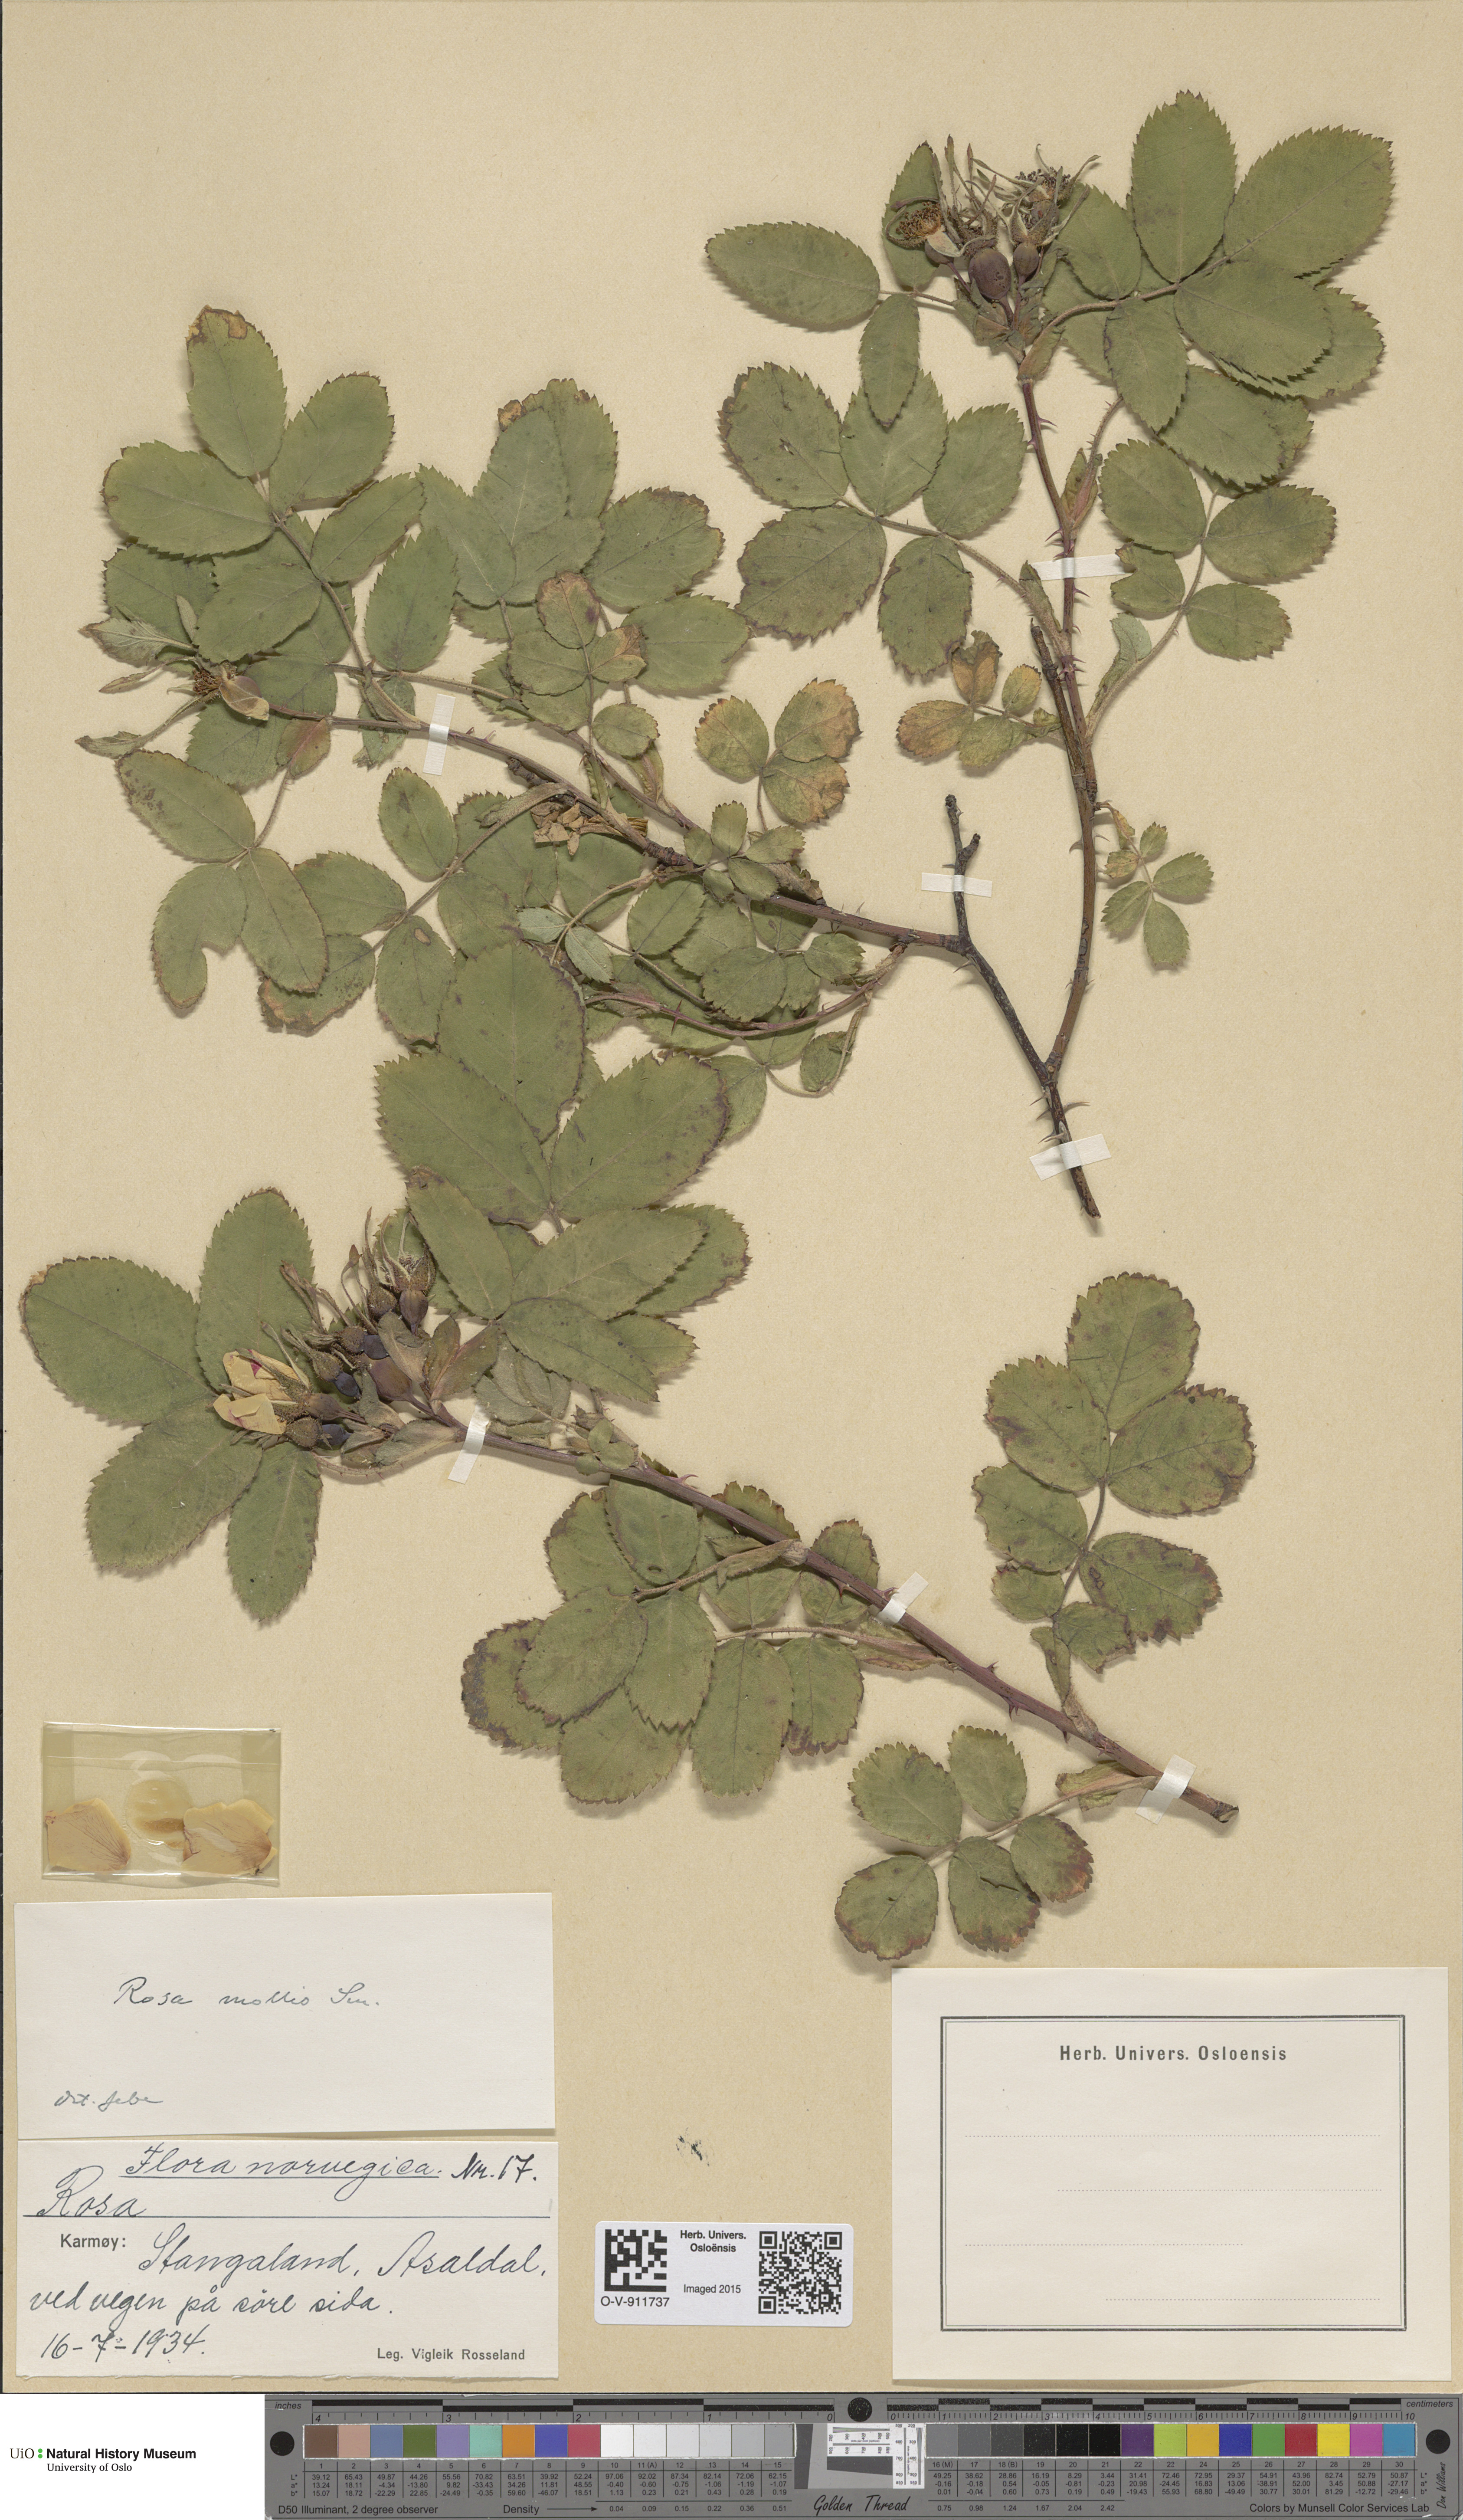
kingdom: Plantae
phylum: Tracheophyta
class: Magnoliopsida
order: Rosales
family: Rosaceae
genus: Rosa
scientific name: Rosa mollis
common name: Rose
